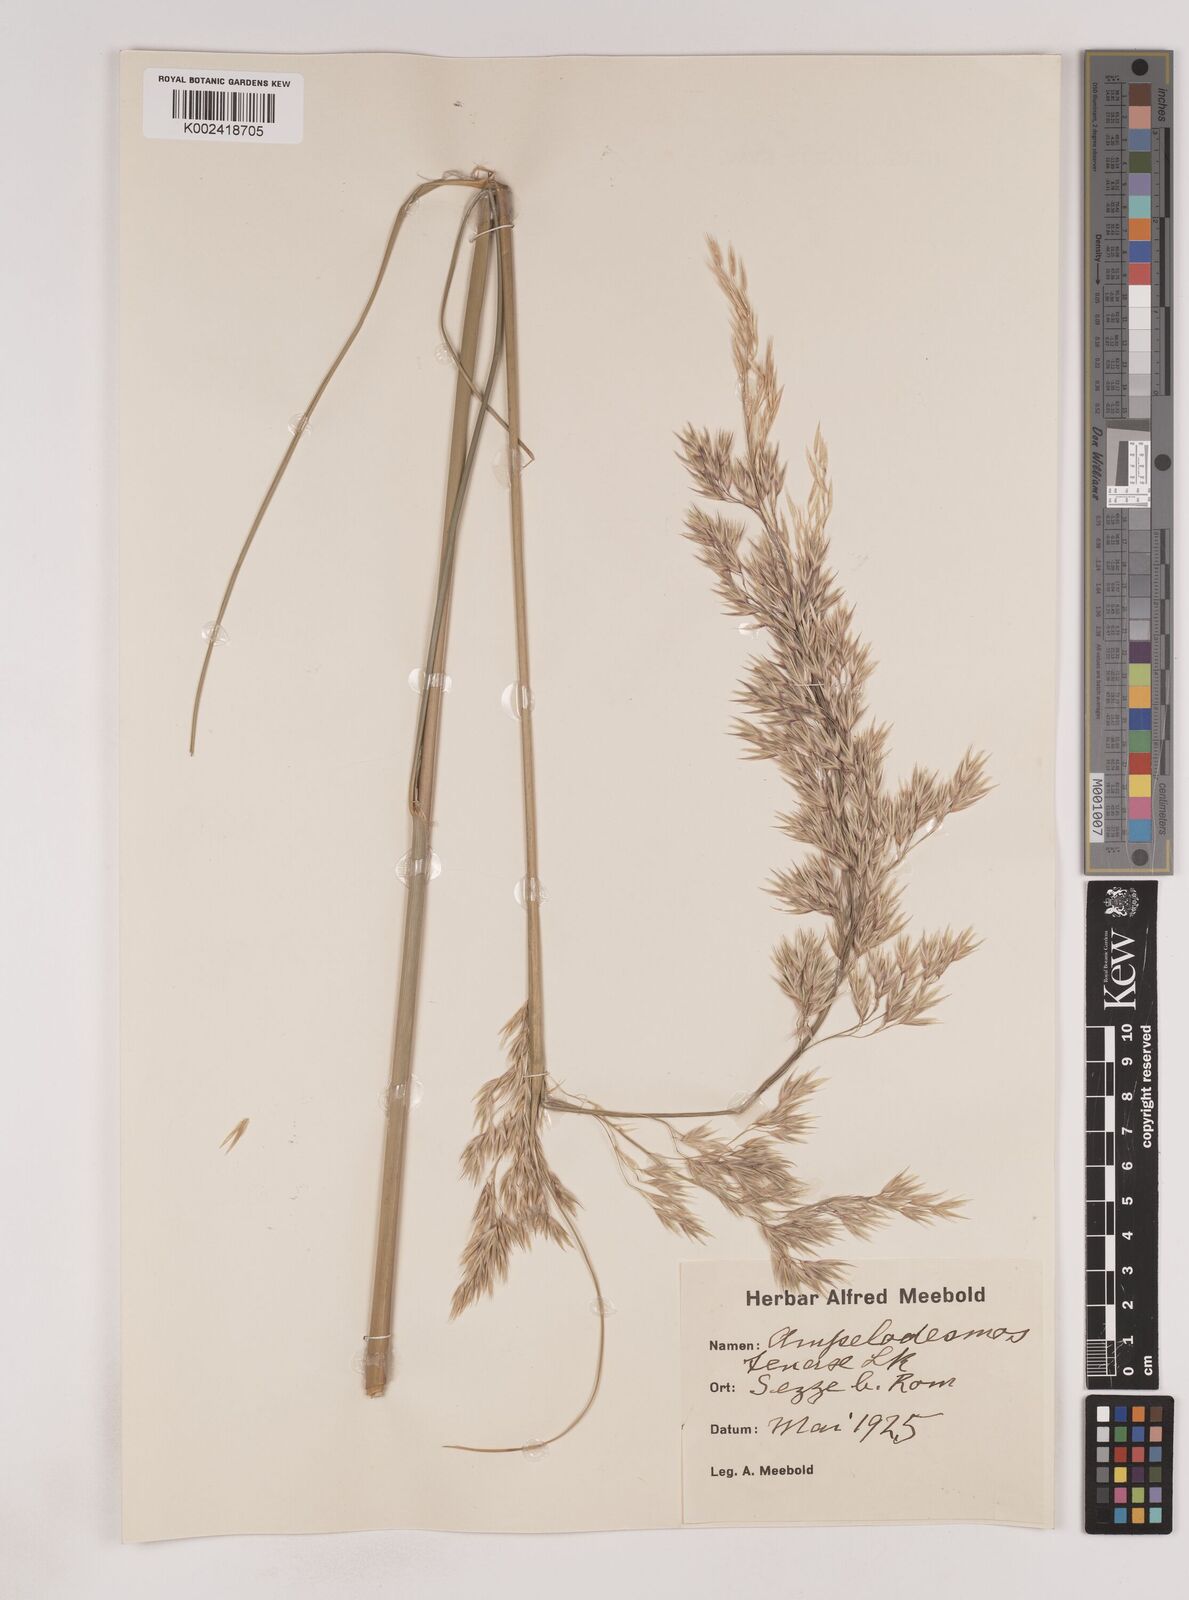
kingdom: Plantae
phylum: Tracheophyta
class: Liliopsida
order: Poales
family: Poaceae
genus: Ampelodesmos
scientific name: Ampelodesmos mauritanicus
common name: Mauritanian grass
